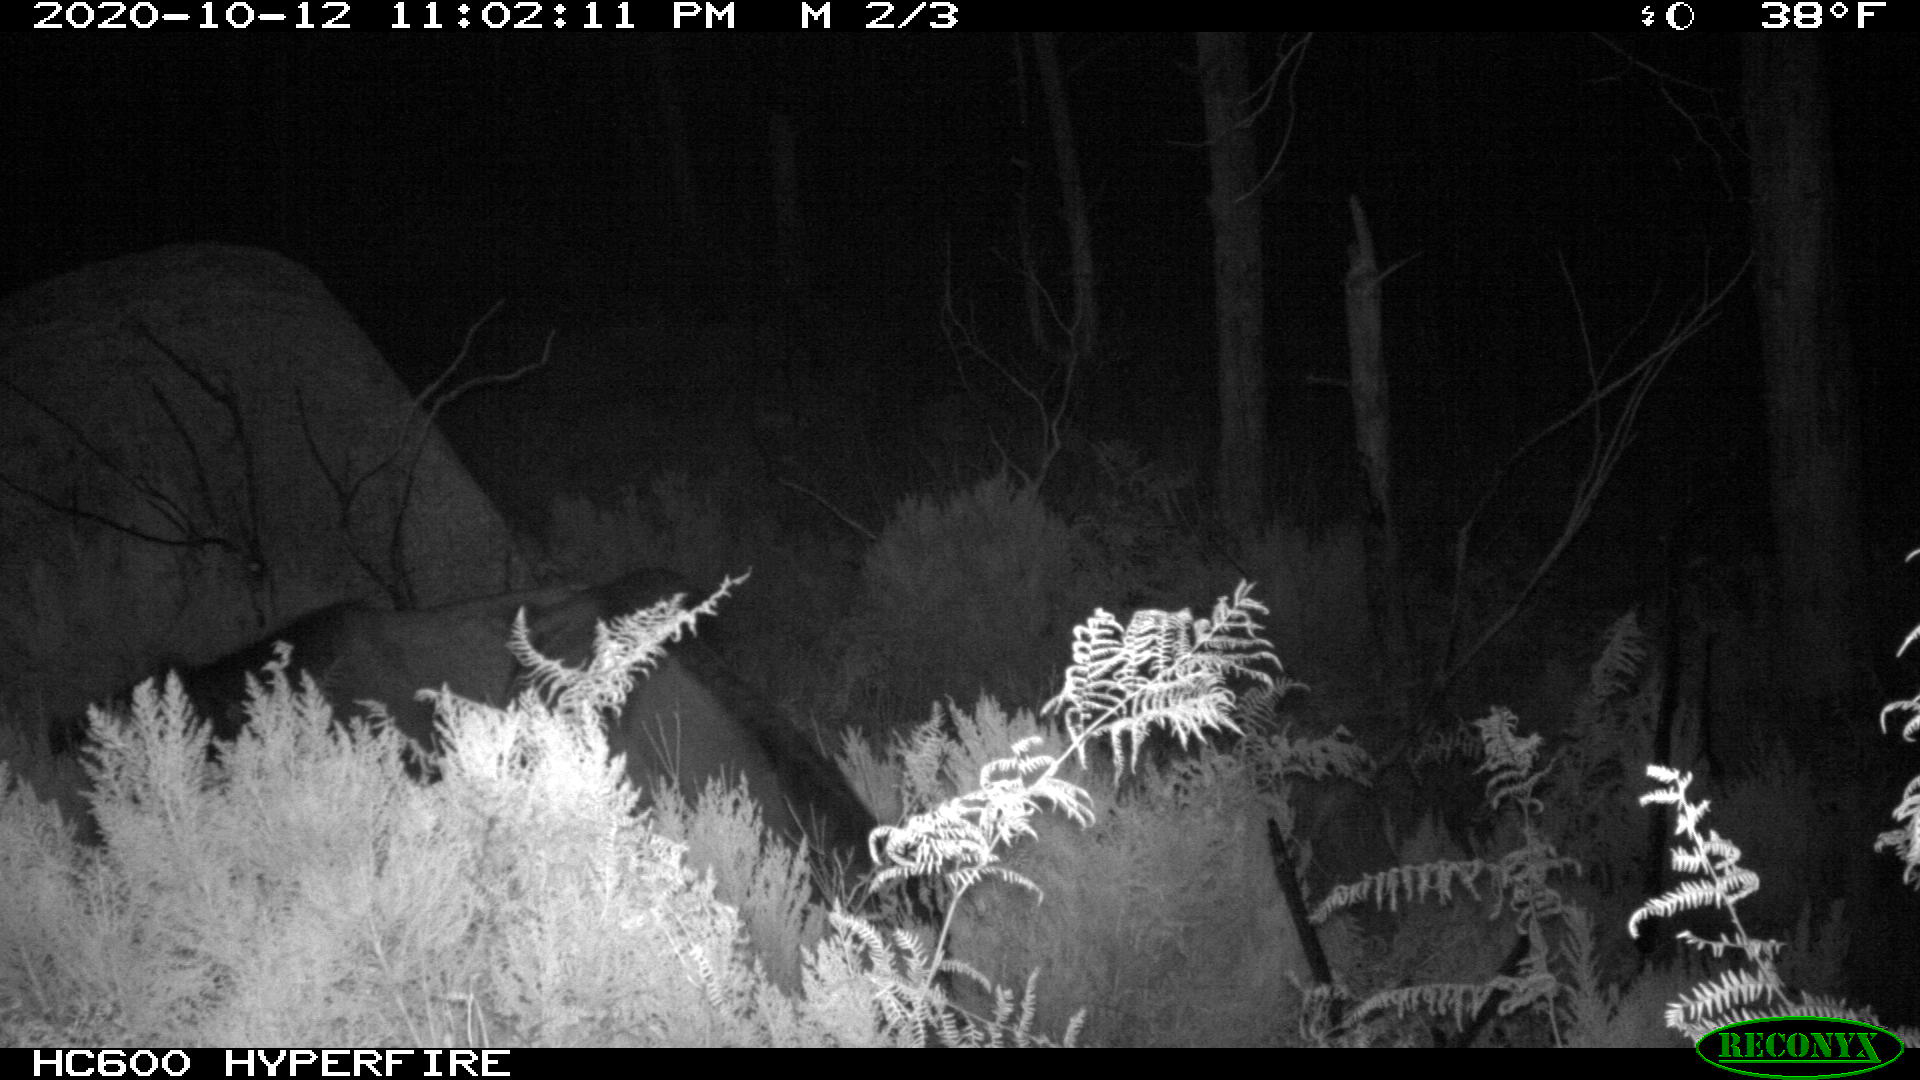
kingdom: Animalia
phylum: Chordata
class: Mammalia
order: Perissodactyla
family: Equidae
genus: Equus
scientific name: Equus caballus
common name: Horse
